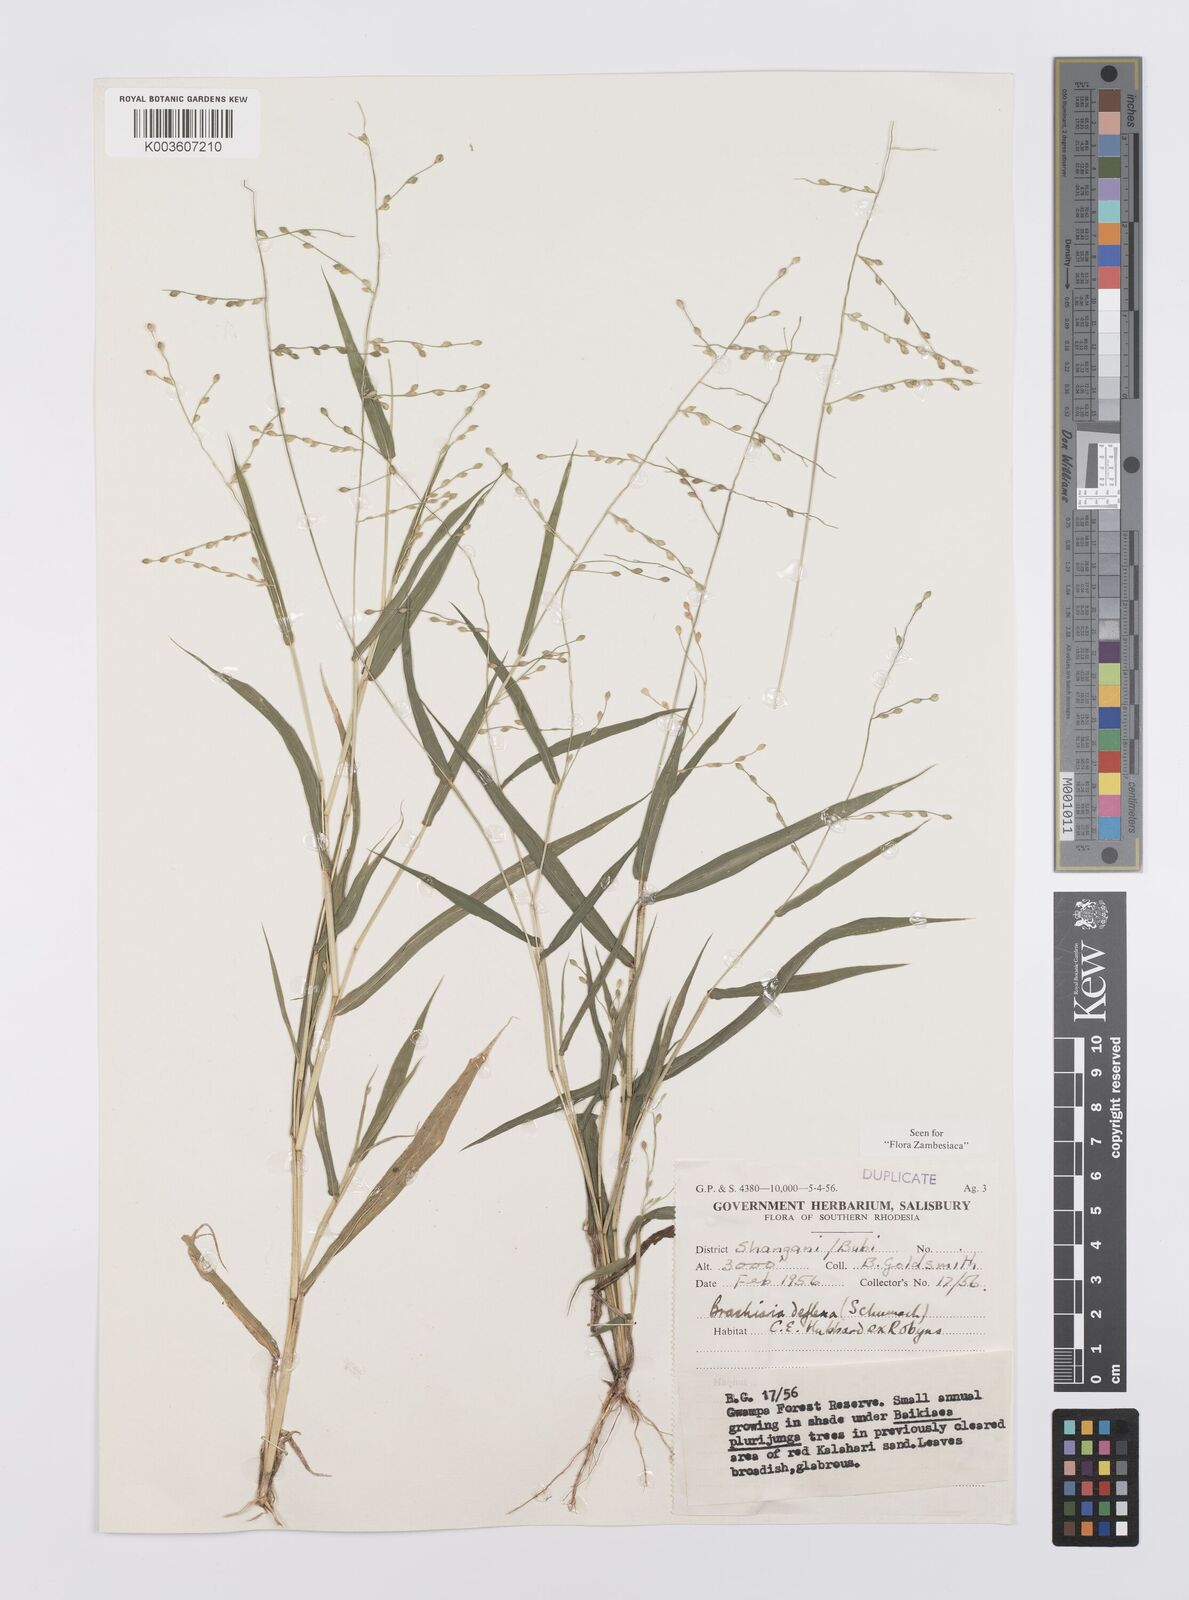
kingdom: Plantae
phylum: Tracheophyta
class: Liliopsida
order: Poales
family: Poaceae
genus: Urochloa
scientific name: Urochloa deflexa
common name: Guinea millet
